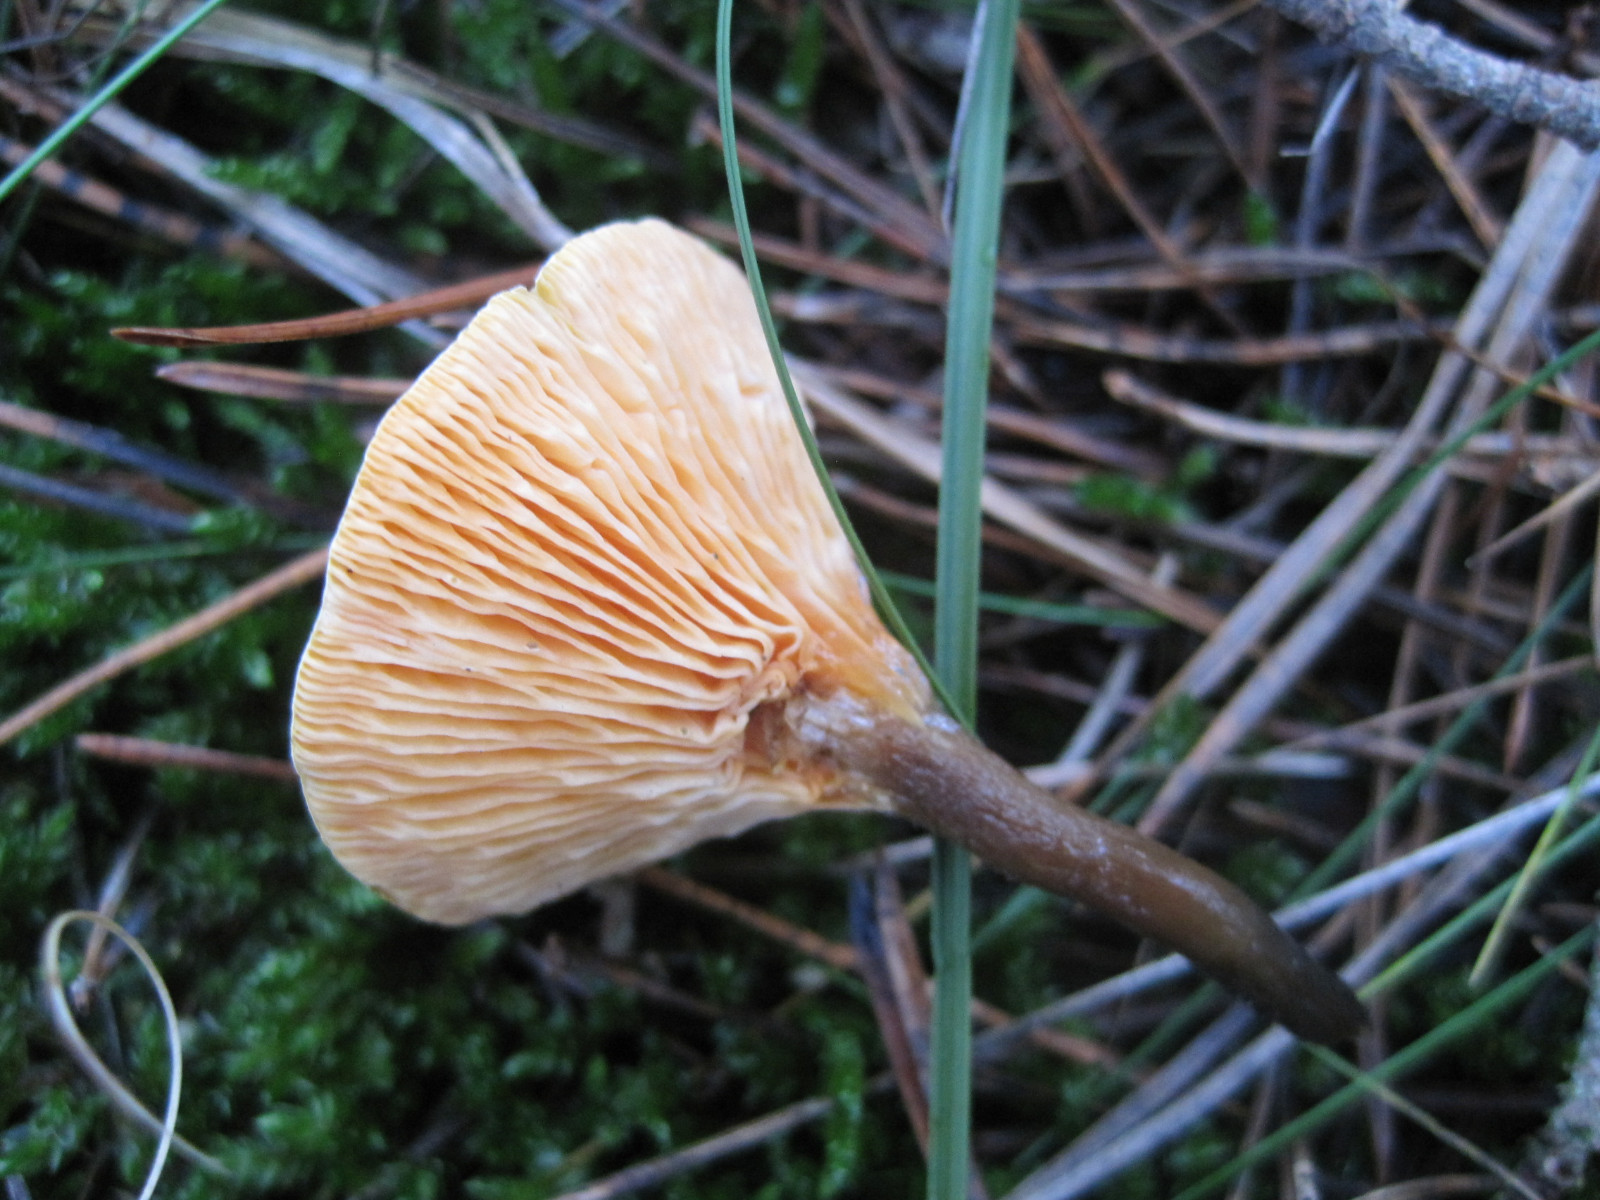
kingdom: Fungi
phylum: Basidiomycota
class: Agaricomycetes
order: Boletales
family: Hygrophoropsidaceae
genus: Hygrophoropsis
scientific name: Hygrophoropsis aurantiaca
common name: almindelig orangekantarel
